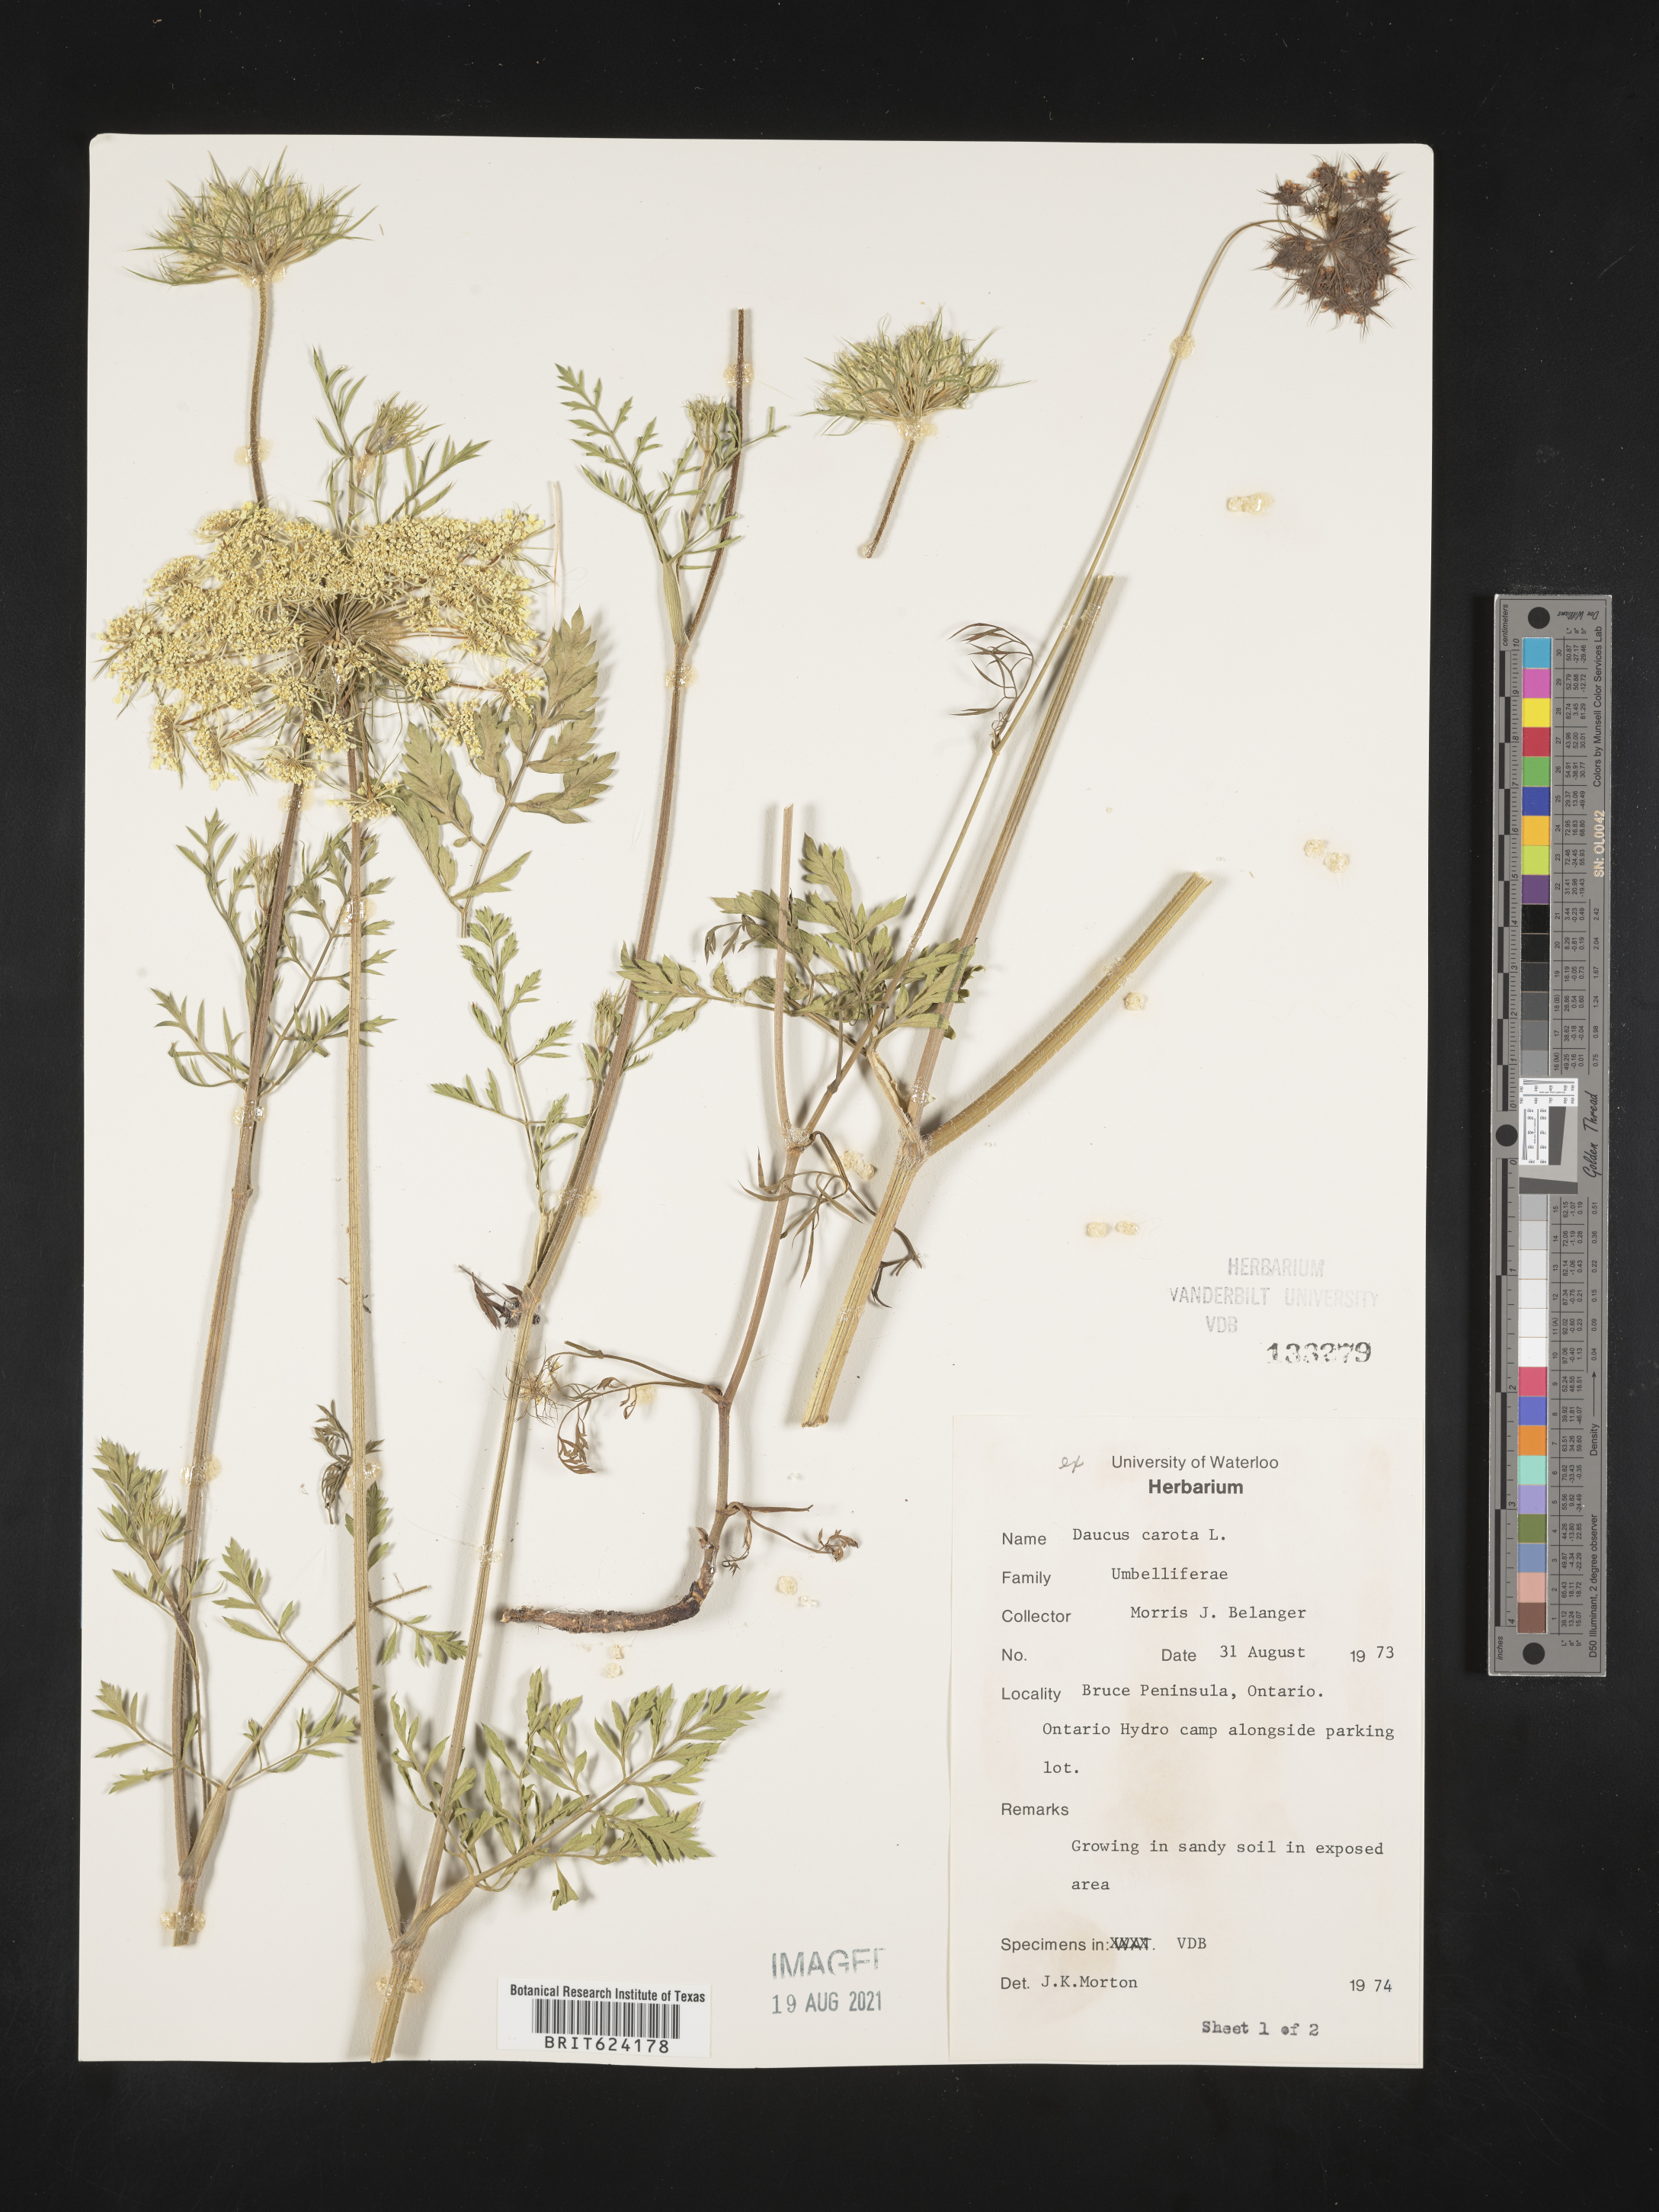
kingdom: Plantae
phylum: Tracheophyta
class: Magnoliopsida
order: Apiales
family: Apiaceae
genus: Daucus
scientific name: Daucus
